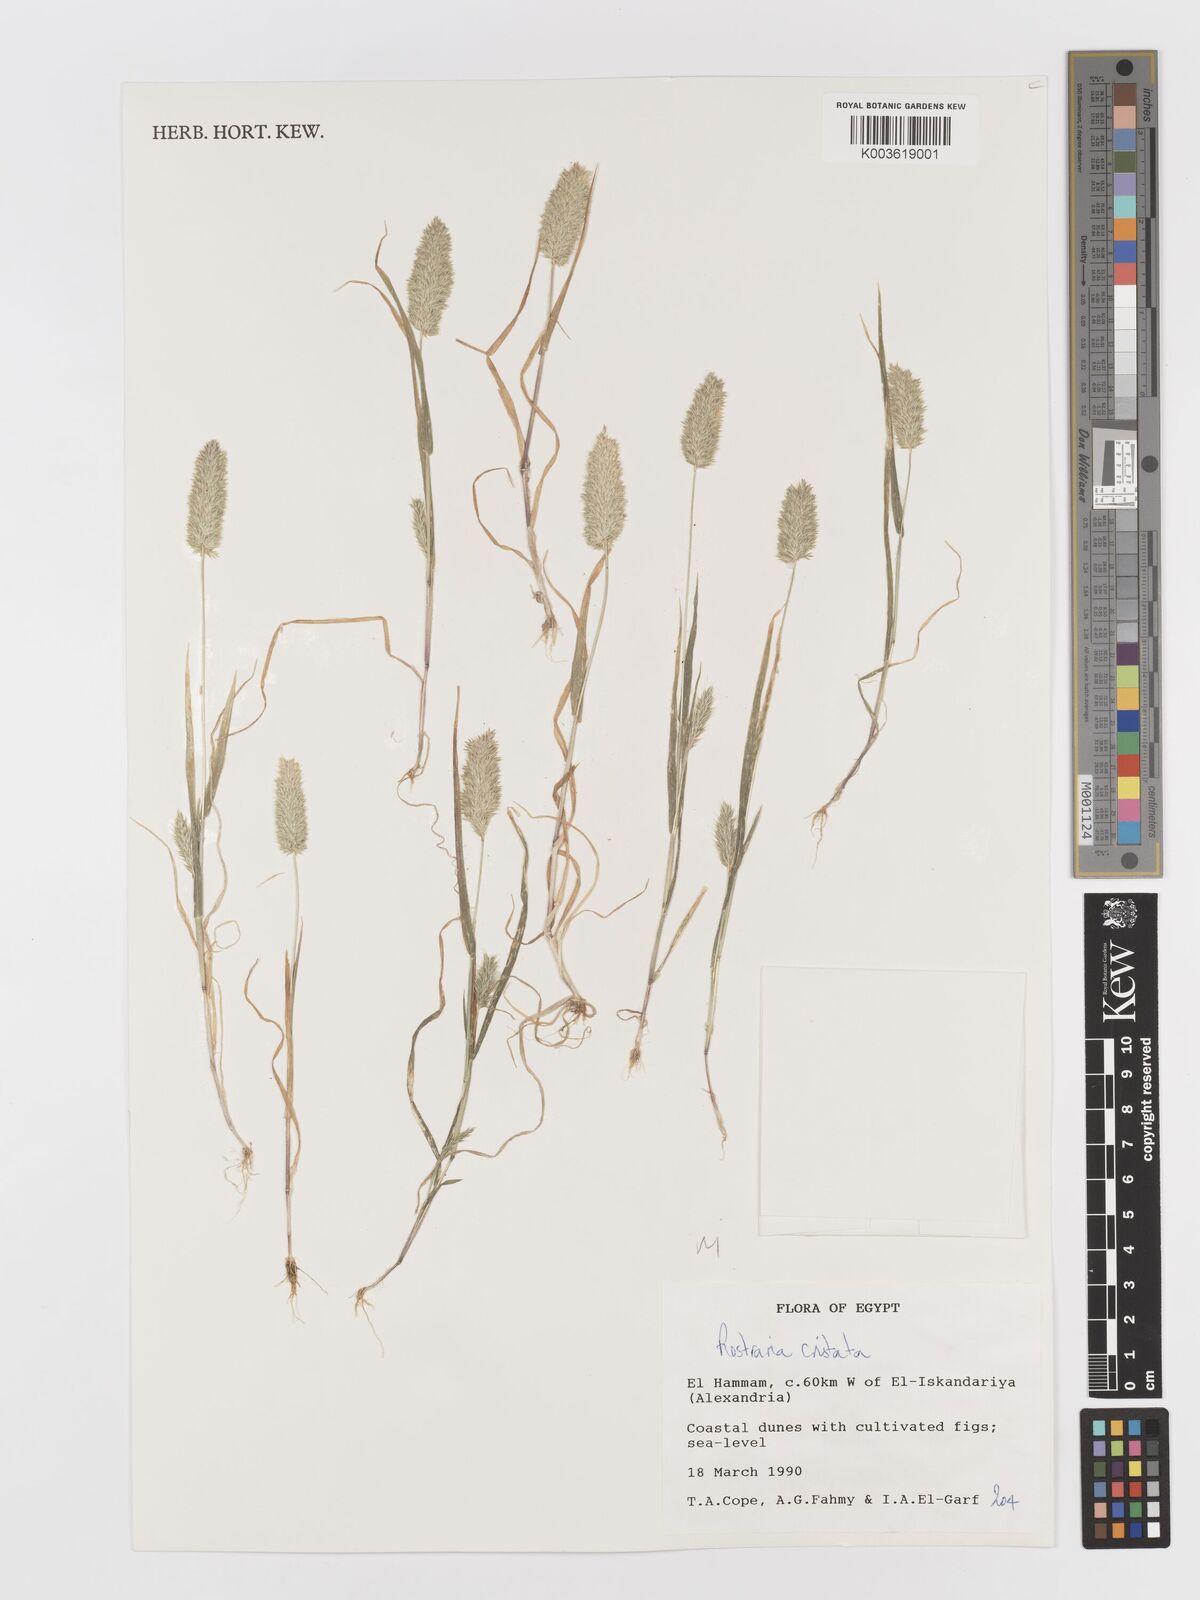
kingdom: Plantae
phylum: Tracheophyta
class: Liliopsida
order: Poales
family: Poaceae
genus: Rostraria
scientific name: Rostraria cristata
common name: Mediterranean hair-grass
